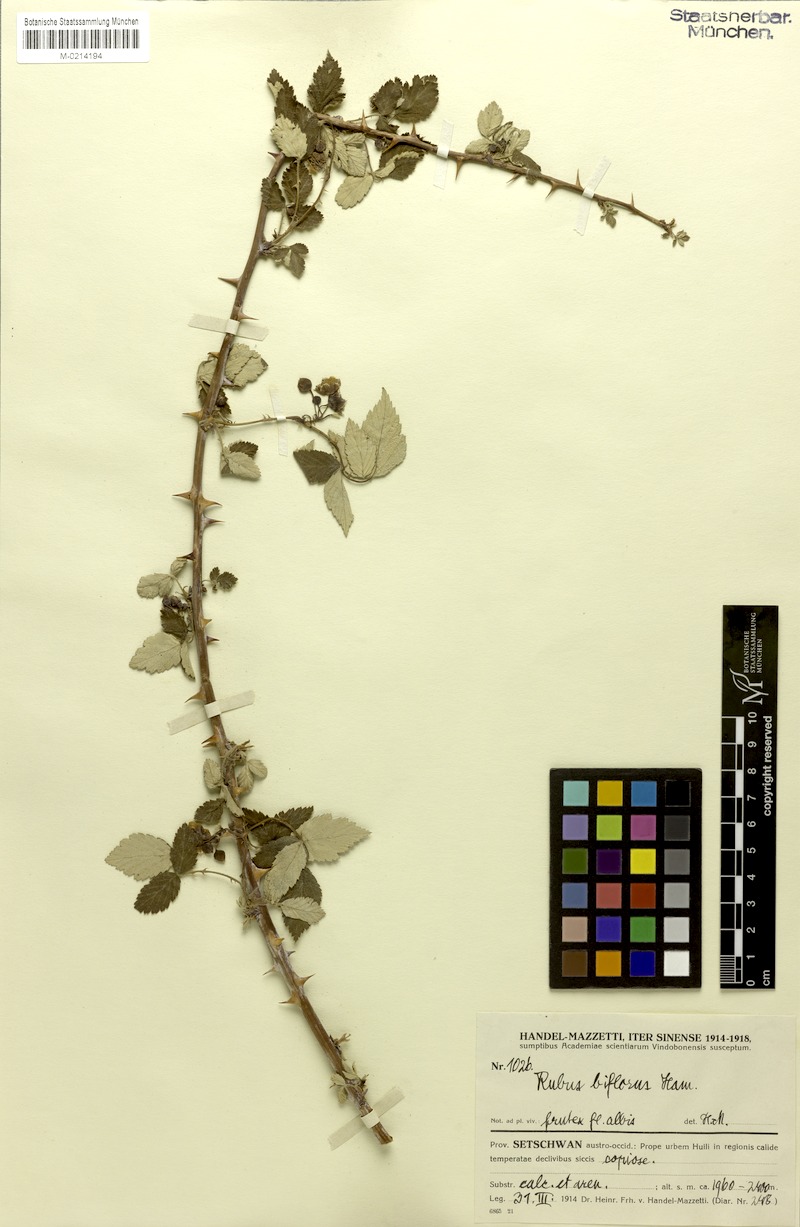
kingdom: Plantae
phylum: Tracheophyta
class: Magnoliopsida
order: Rosales
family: Rosaceae
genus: Rubus
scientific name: Rubus biflorus
